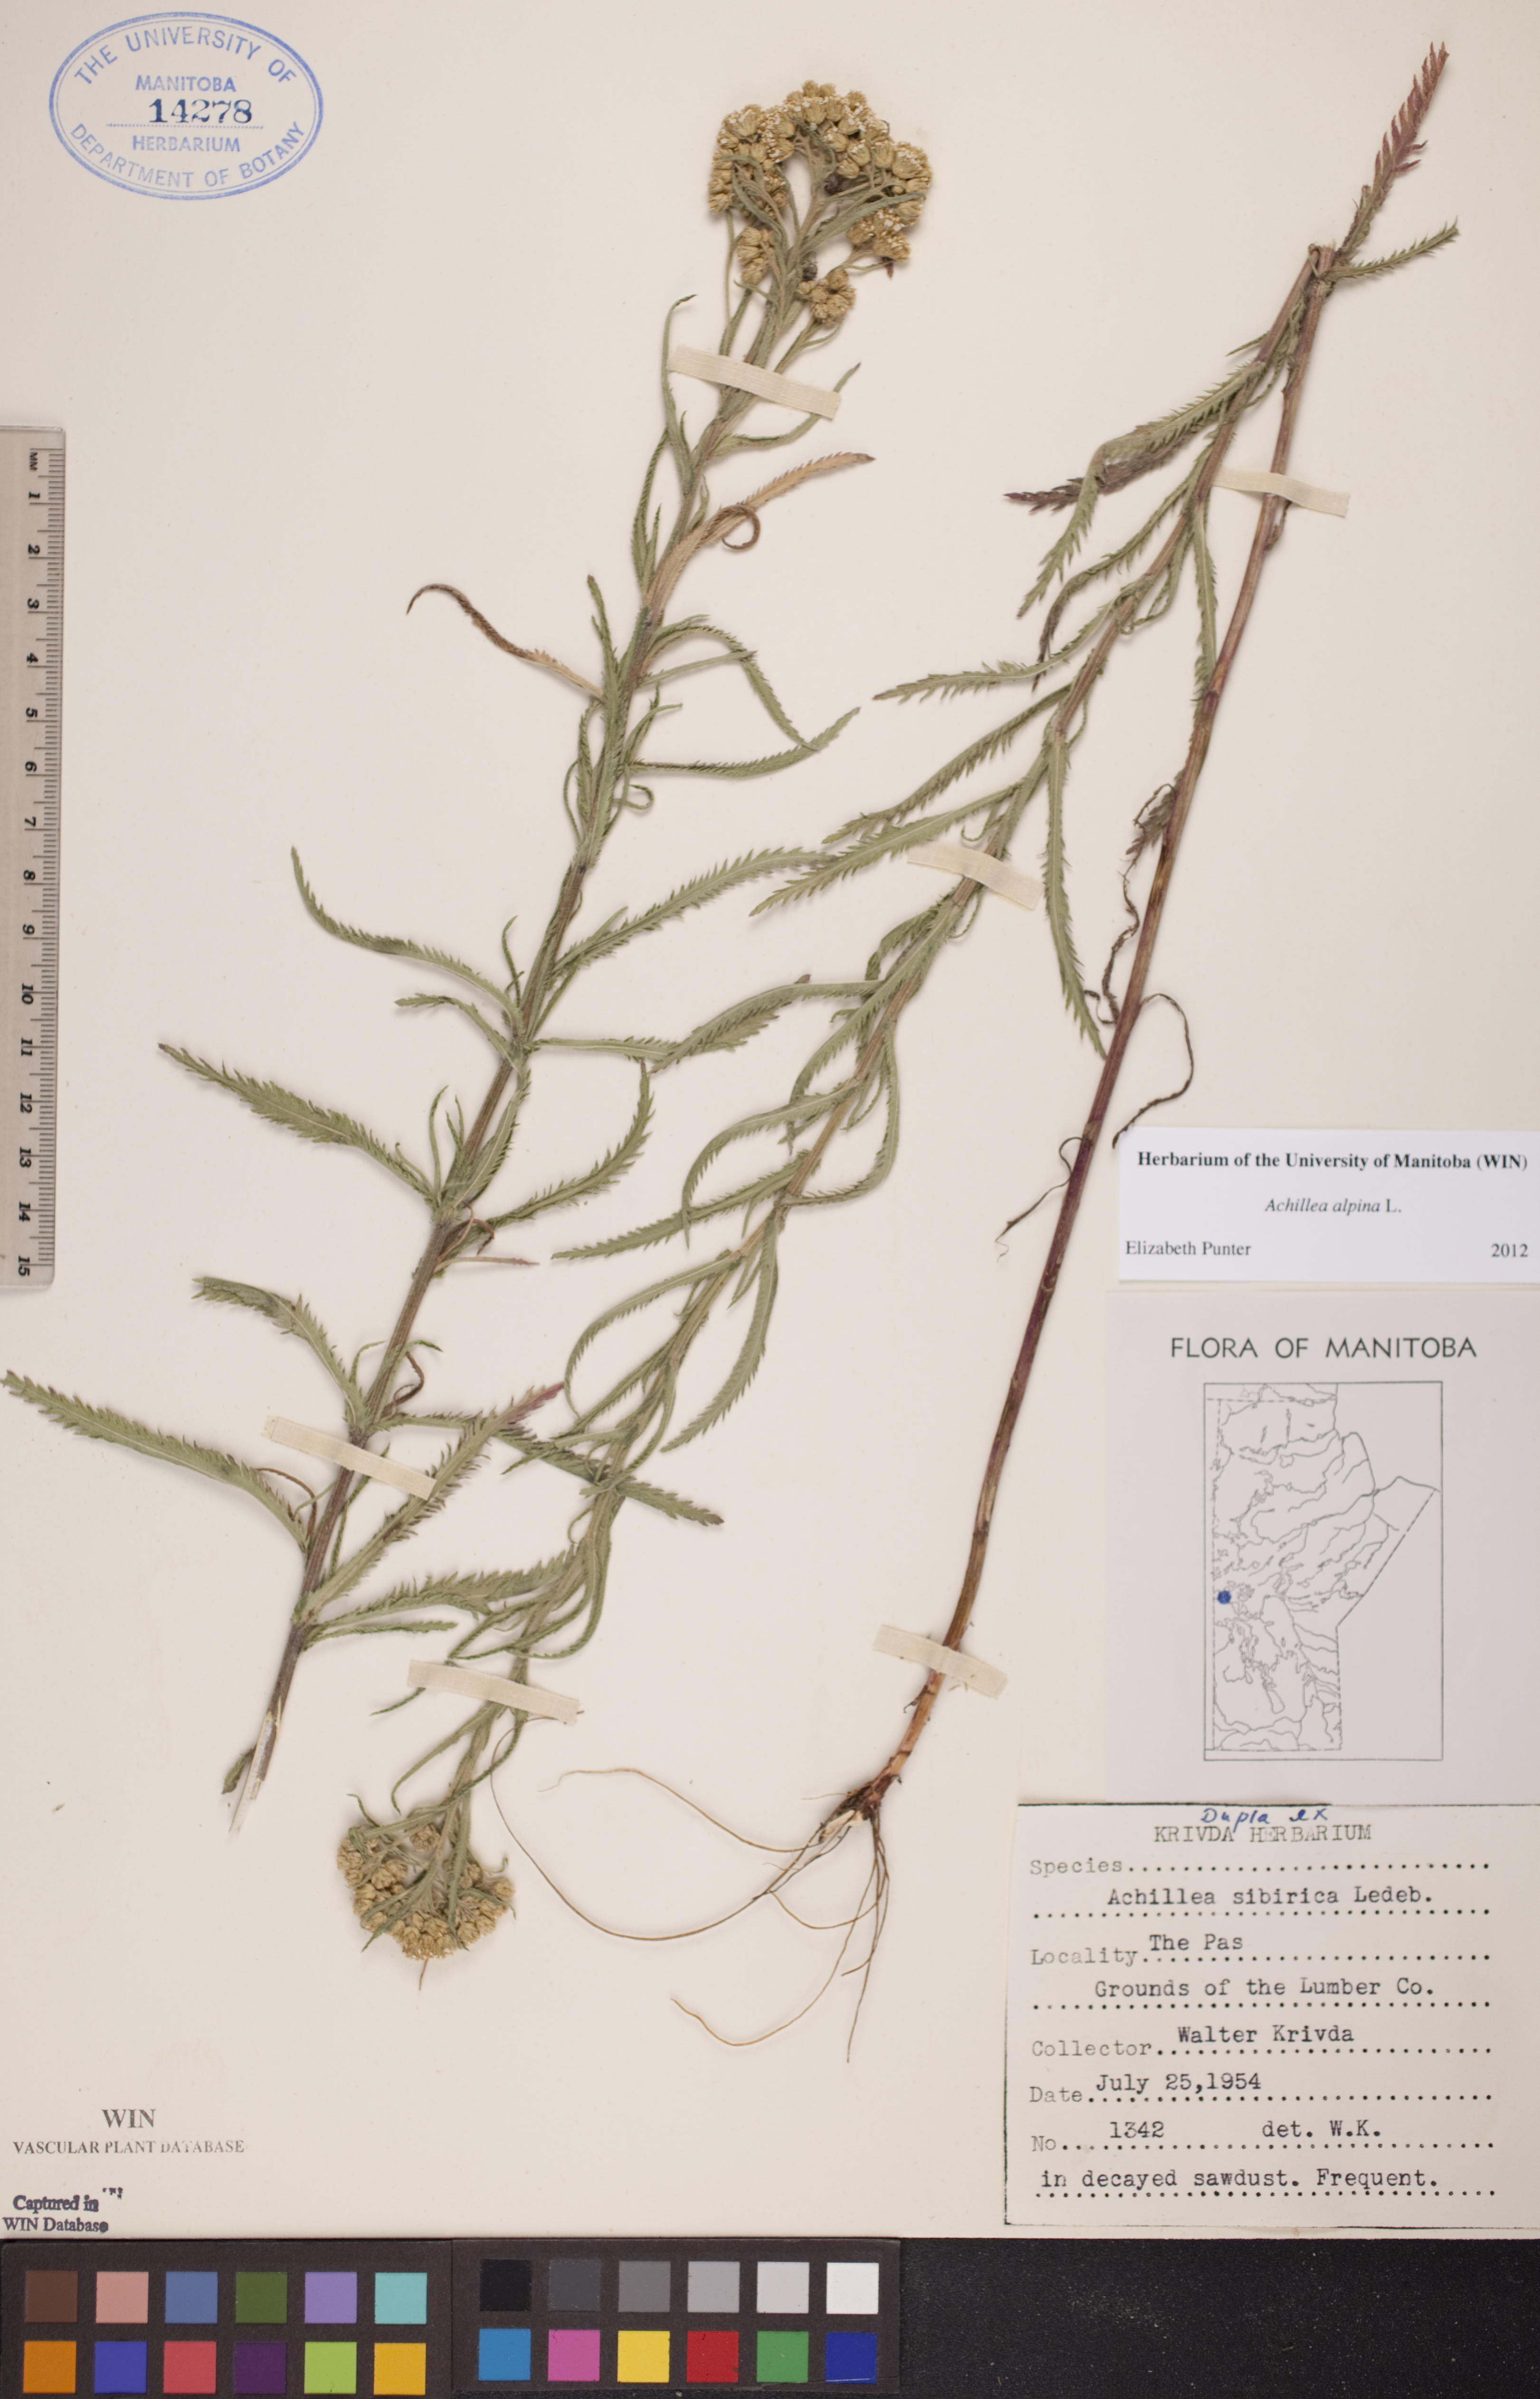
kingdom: Plantae
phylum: Tracheophyta
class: Magnoliopsida
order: Asterales
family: Asteraceae
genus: Achillea
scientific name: Achillea alpina
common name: Siberian yarrow
